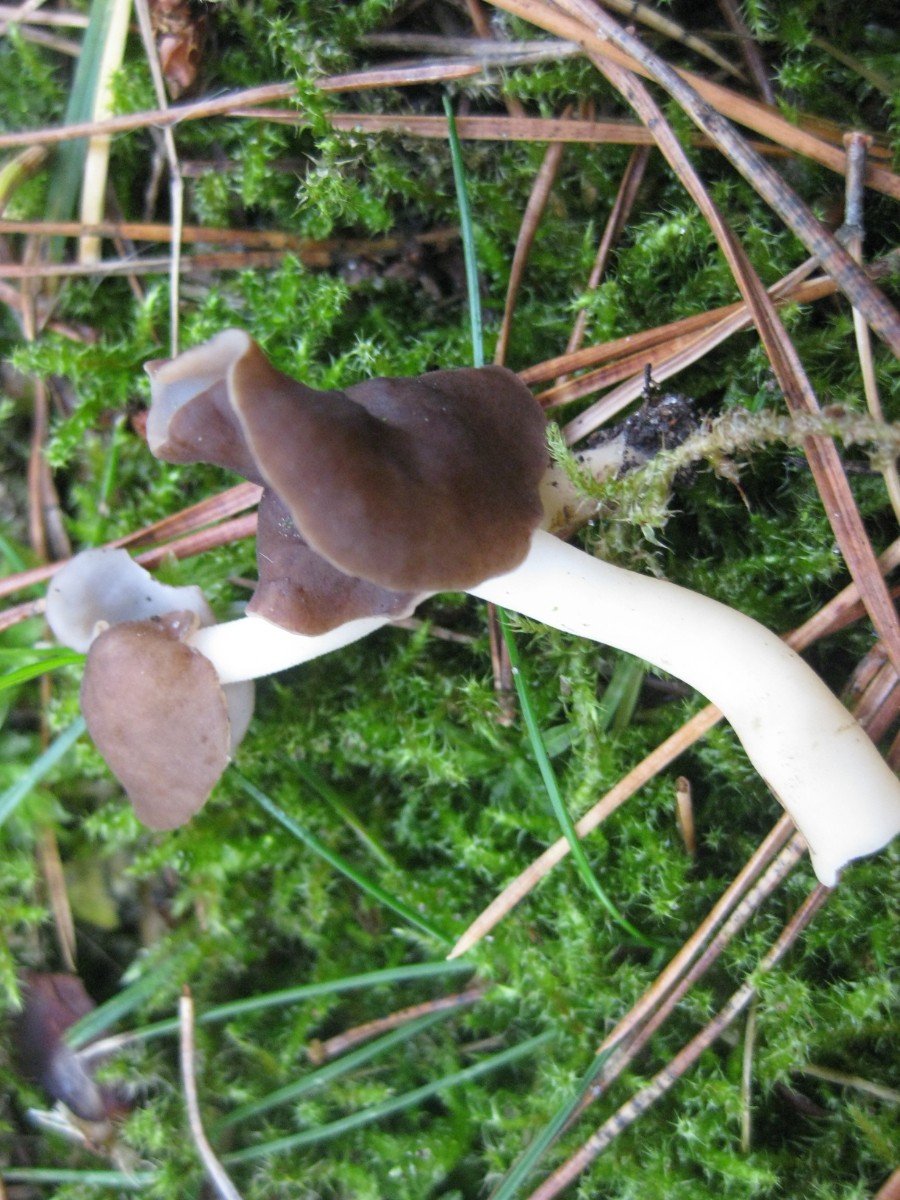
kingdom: Fungi
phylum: Ascomycota
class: Pezizomycetes
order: Pezizales
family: Helvellaceae
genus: Helvella
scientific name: Helvella elastica
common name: elastik-foldhat
